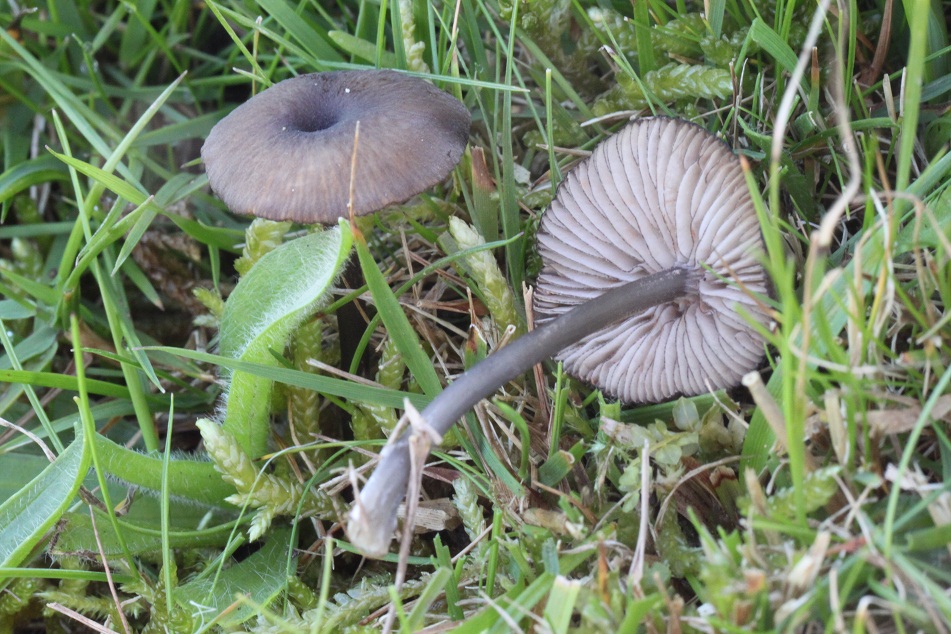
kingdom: Fungi
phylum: Basidiomycota
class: Agaricomycetes
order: Agaricales
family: Entolomataceae
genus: Entoloma
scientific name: Entoloma
